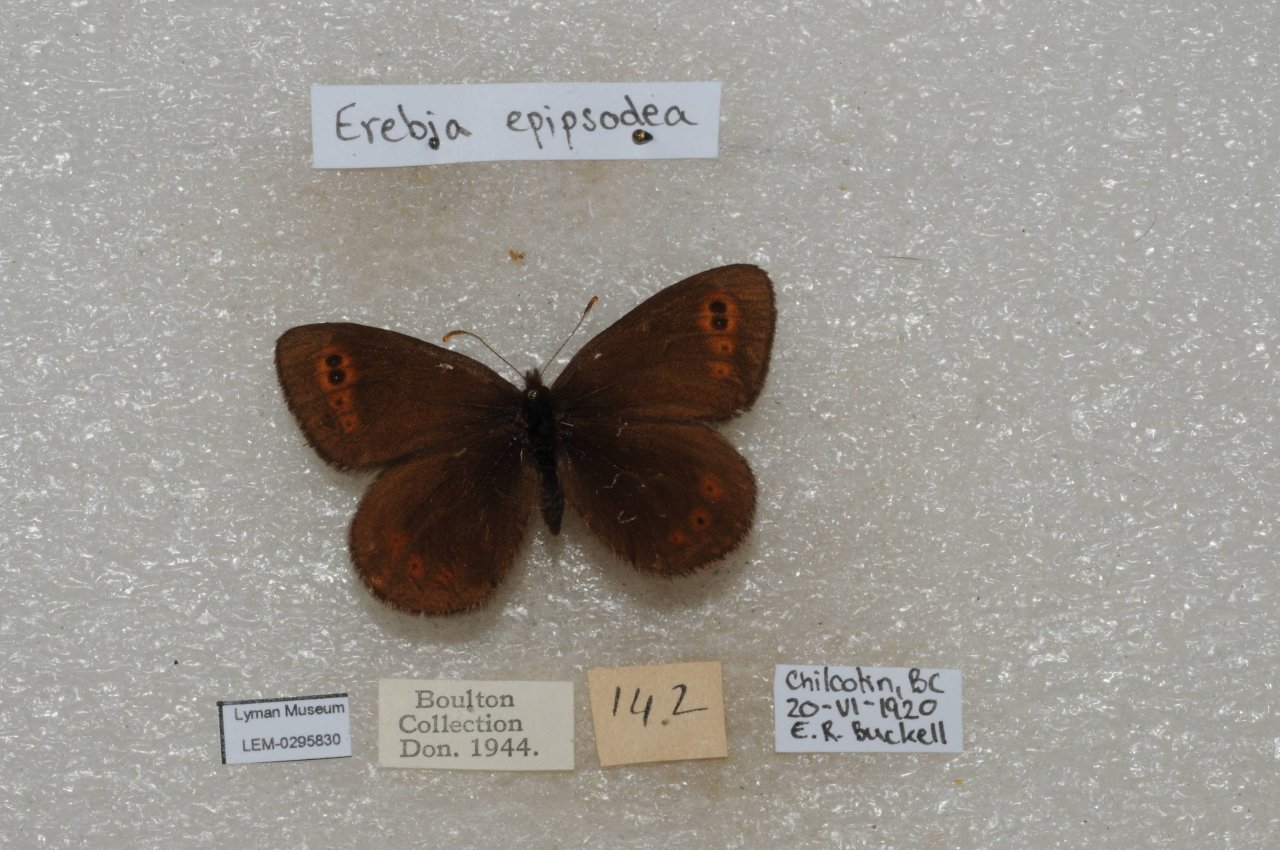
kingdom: Animalia
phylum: Arthropoda
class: Insecta
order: Lepidoptera
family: Nymphalidae
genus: Erebia
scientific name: Erebia epipsodea
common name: Common Alpine
